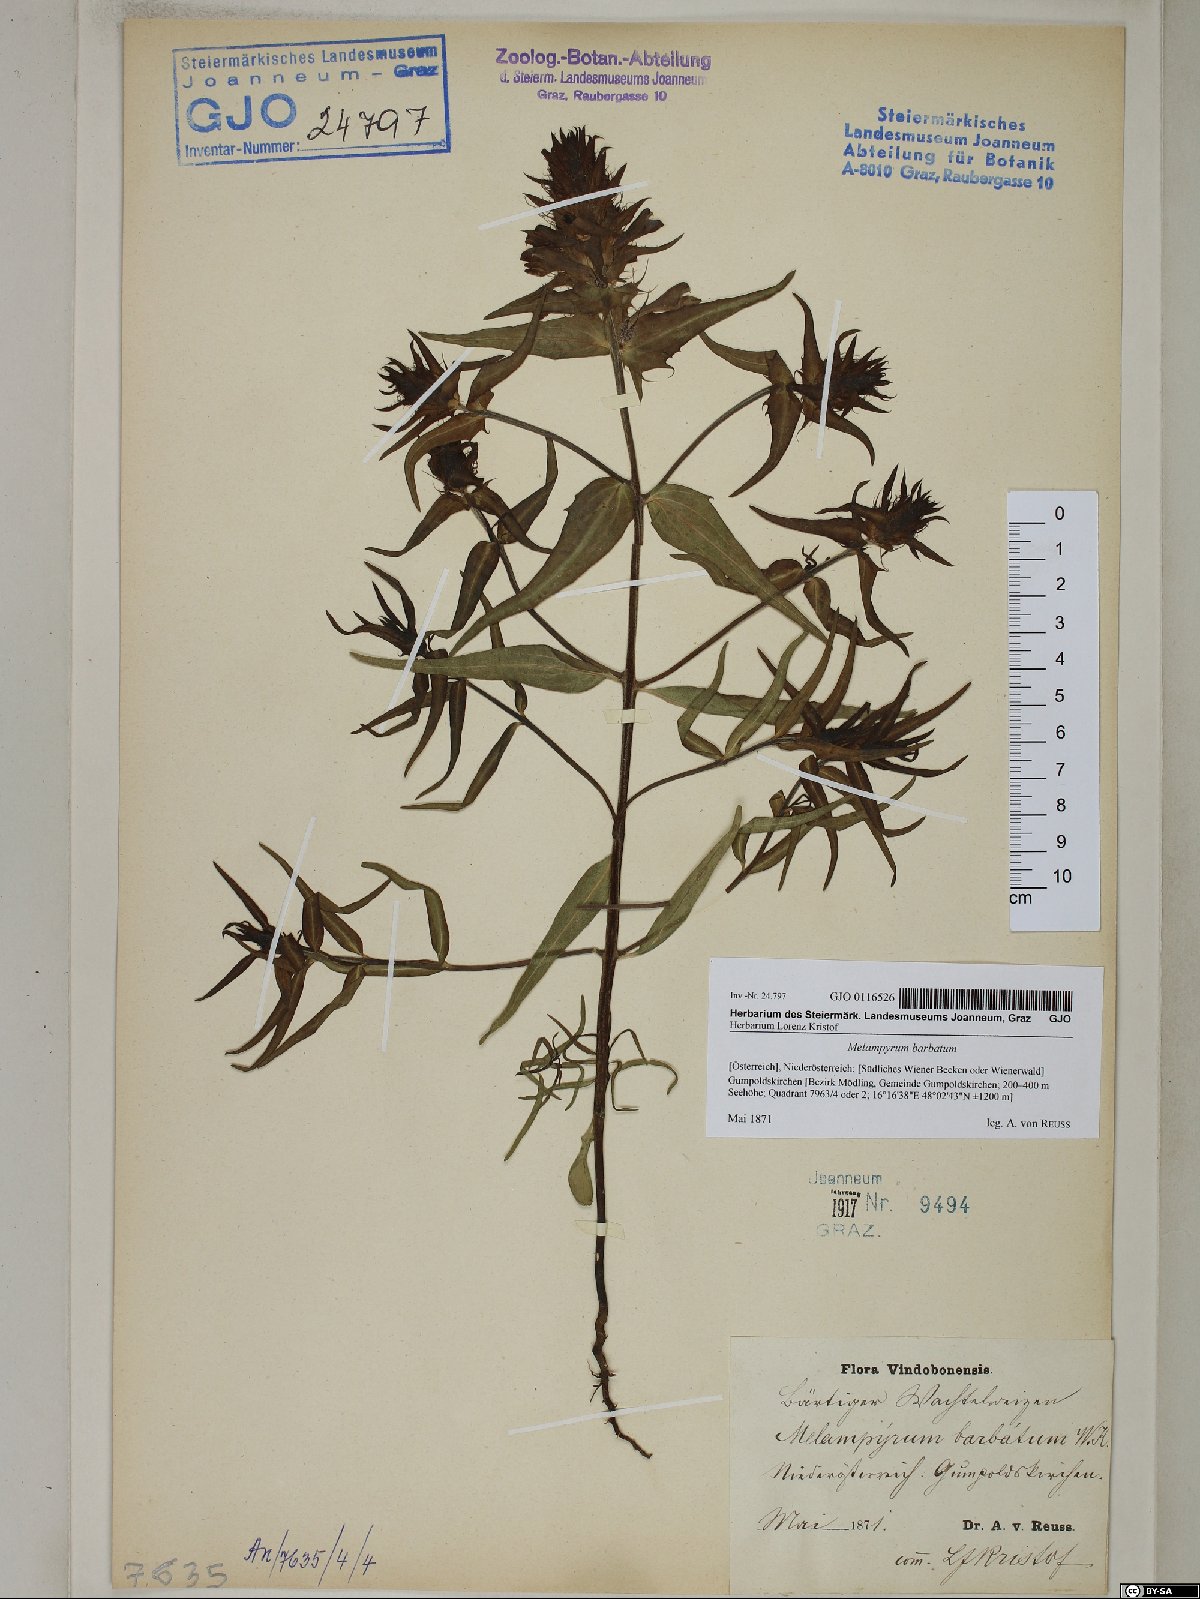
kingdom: Plantae
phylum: Tracheophyta
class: Magnoliopsida
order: Lamiales
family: Orobanchaceae
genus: Melampyrum
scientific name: Melampyrum barbatum
